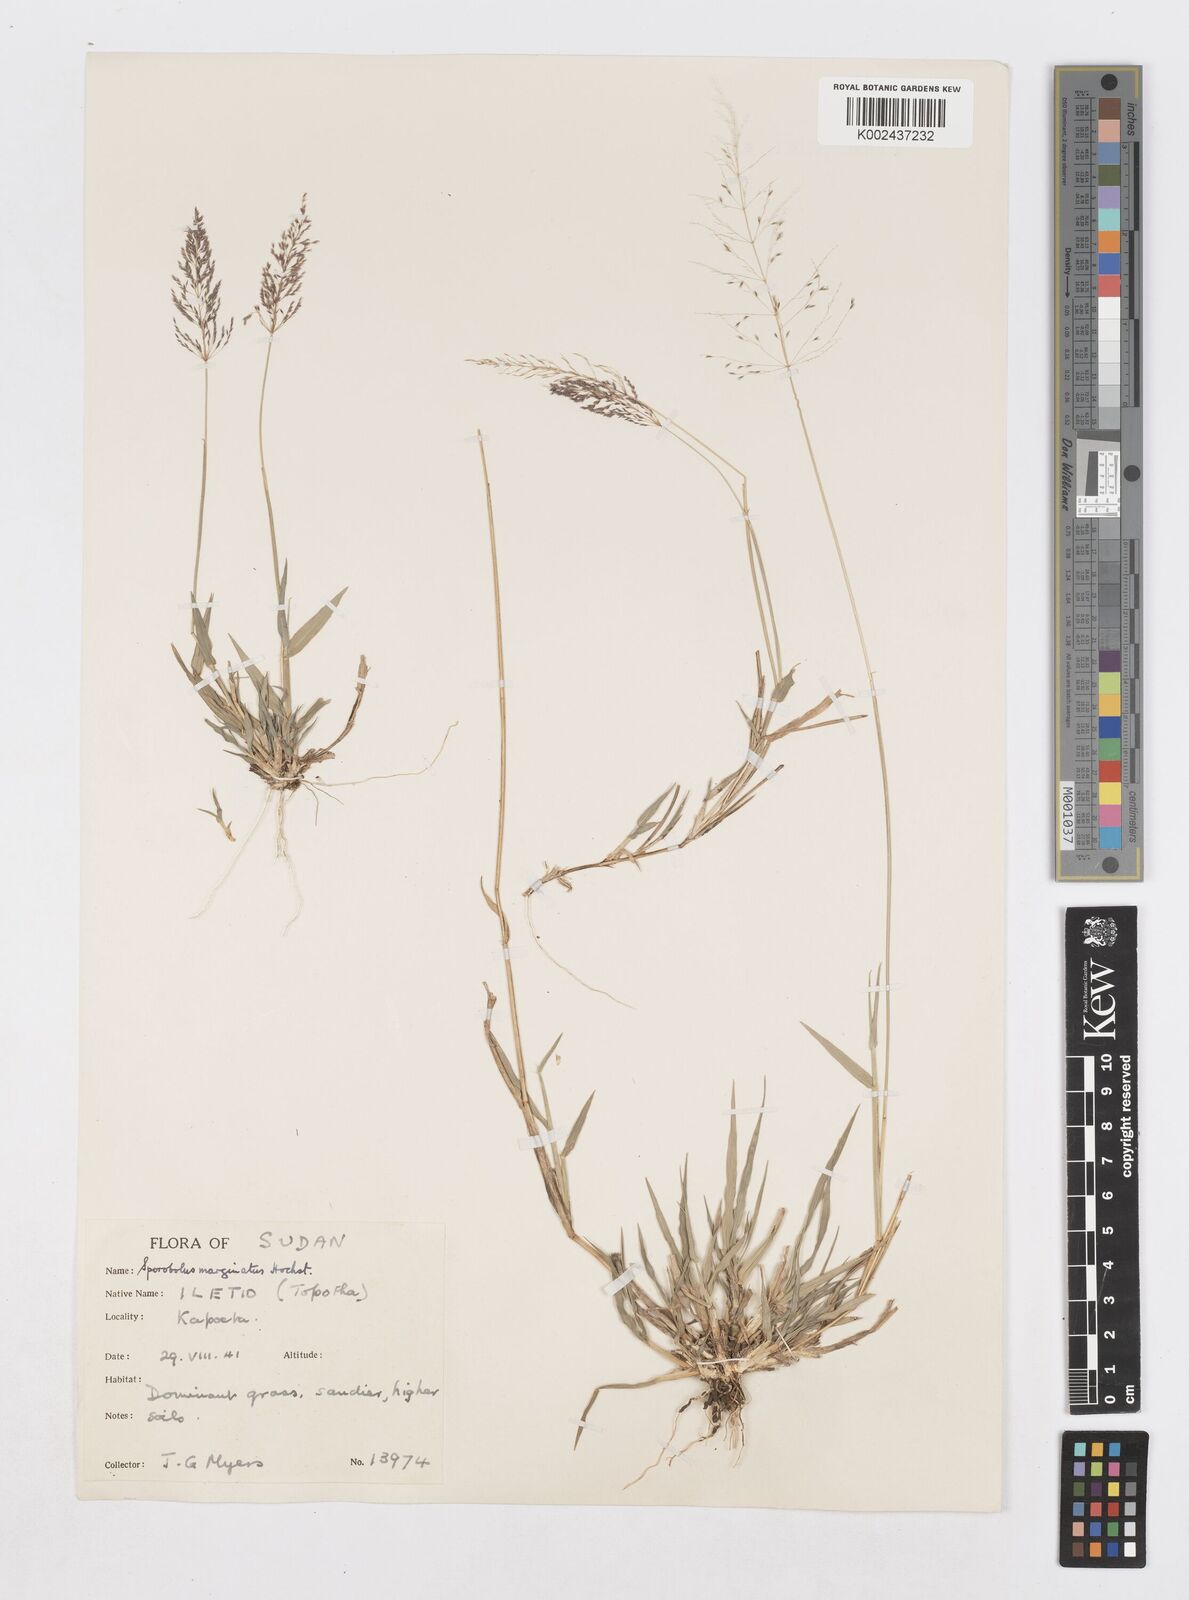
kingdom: Plantae
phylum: Tracheophyta
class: Liliopsida
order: Poales
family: Poaceae
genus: Sporobolus
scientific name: Sporobolus ioclados
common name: Pan dropseed
